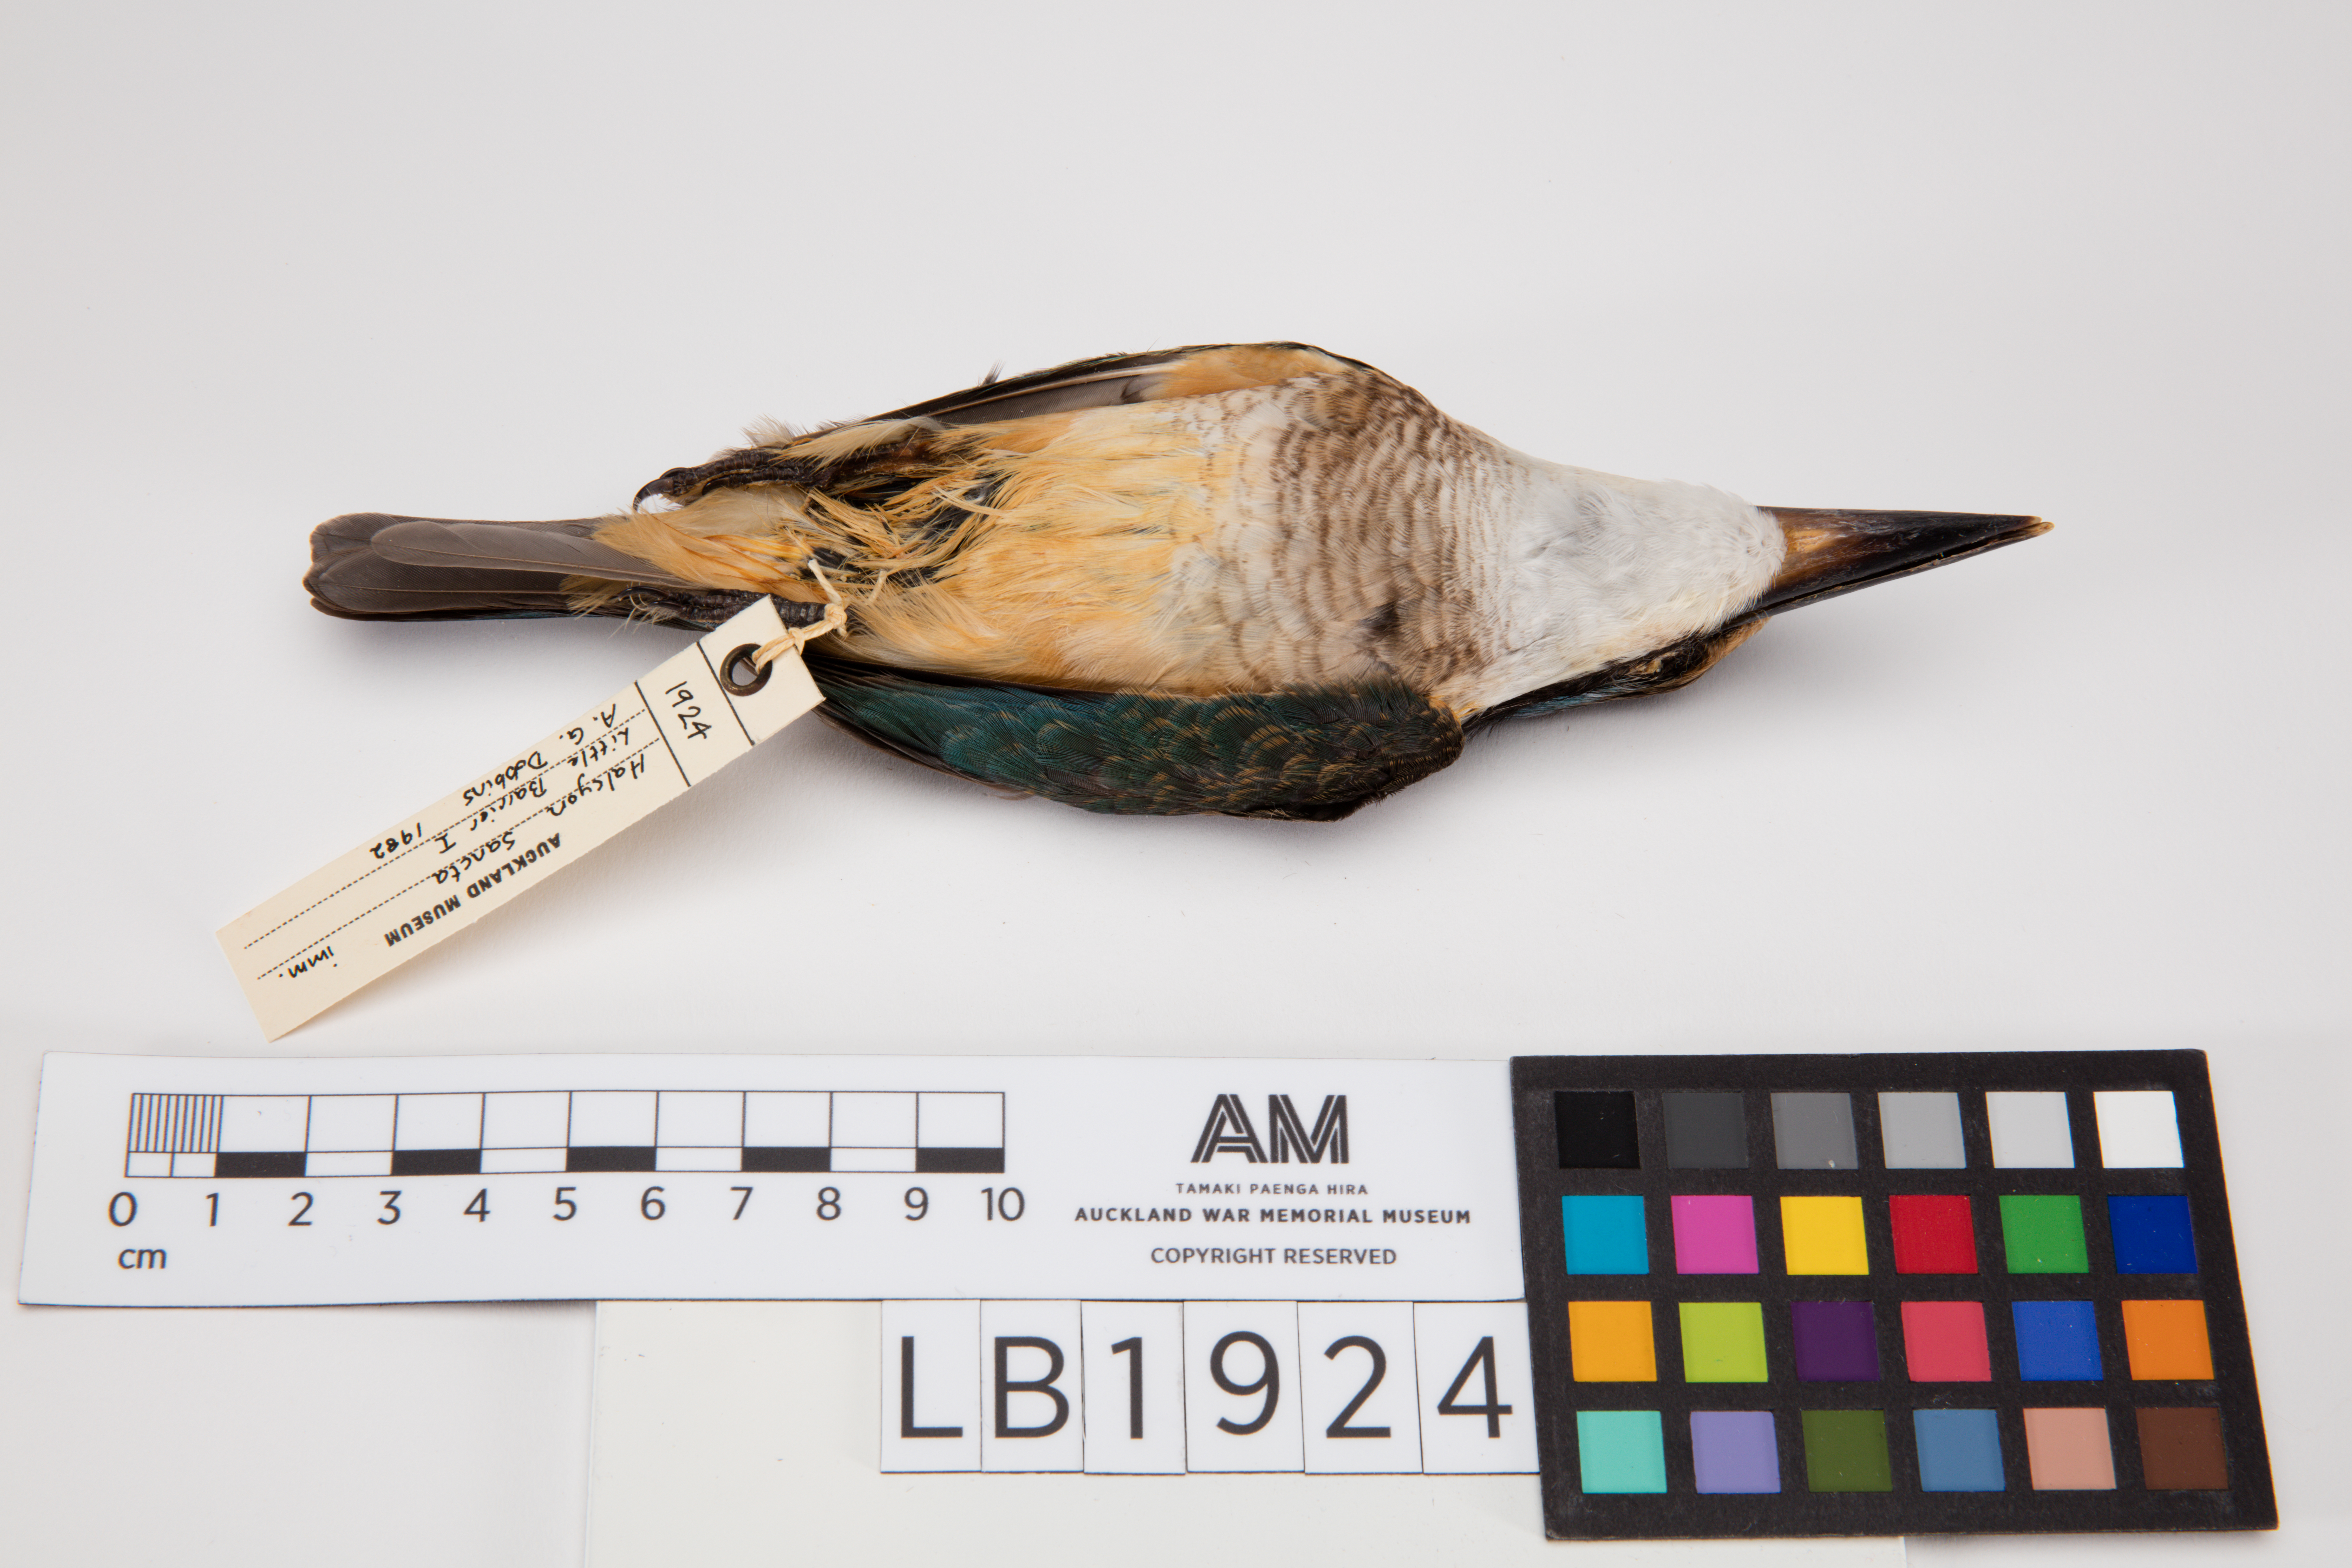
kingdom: Animalia
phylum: Chordata
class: Aves
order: Coraciiformes
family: Alcedinidae
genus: Todiramphus
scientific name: Todiramphus sanctus
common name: Sacred kingfisher
